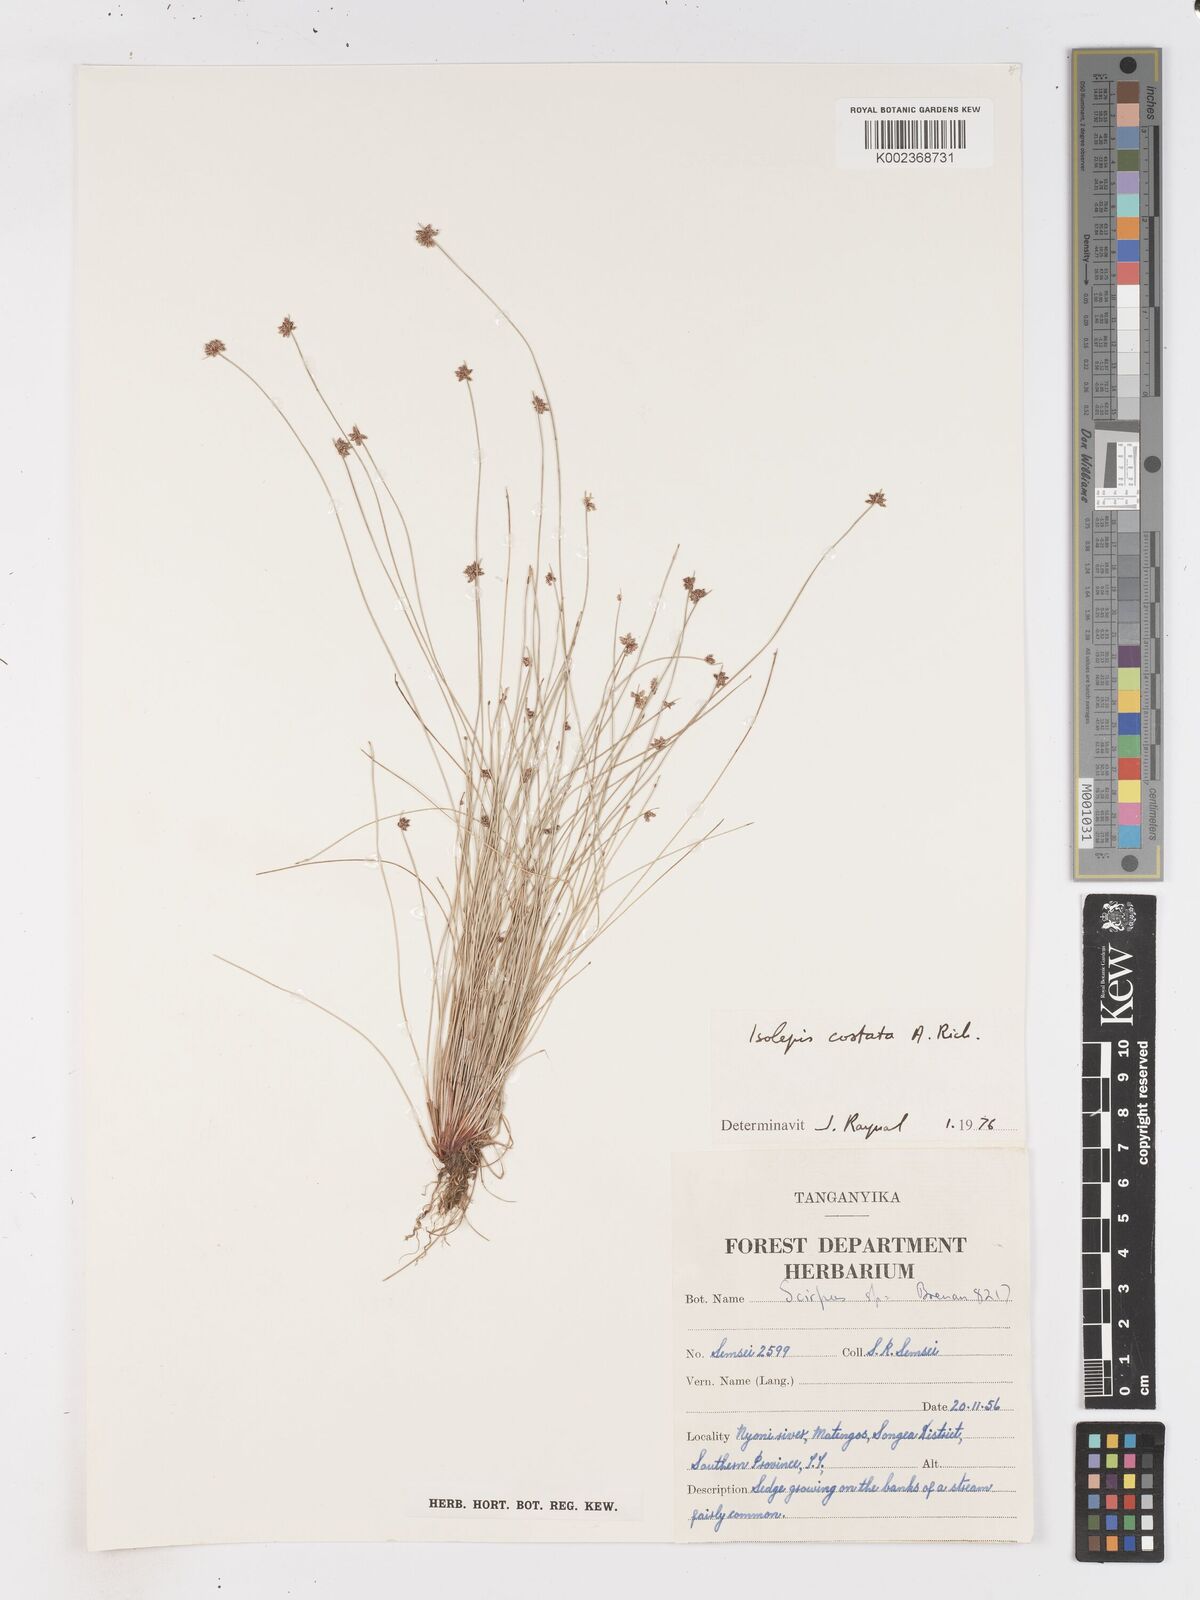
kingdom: Plantae
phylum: Tracheophyta
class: Liliopsida
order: Poales
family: Cyperaceae
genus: Isolepis
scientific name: Isolepis costata
